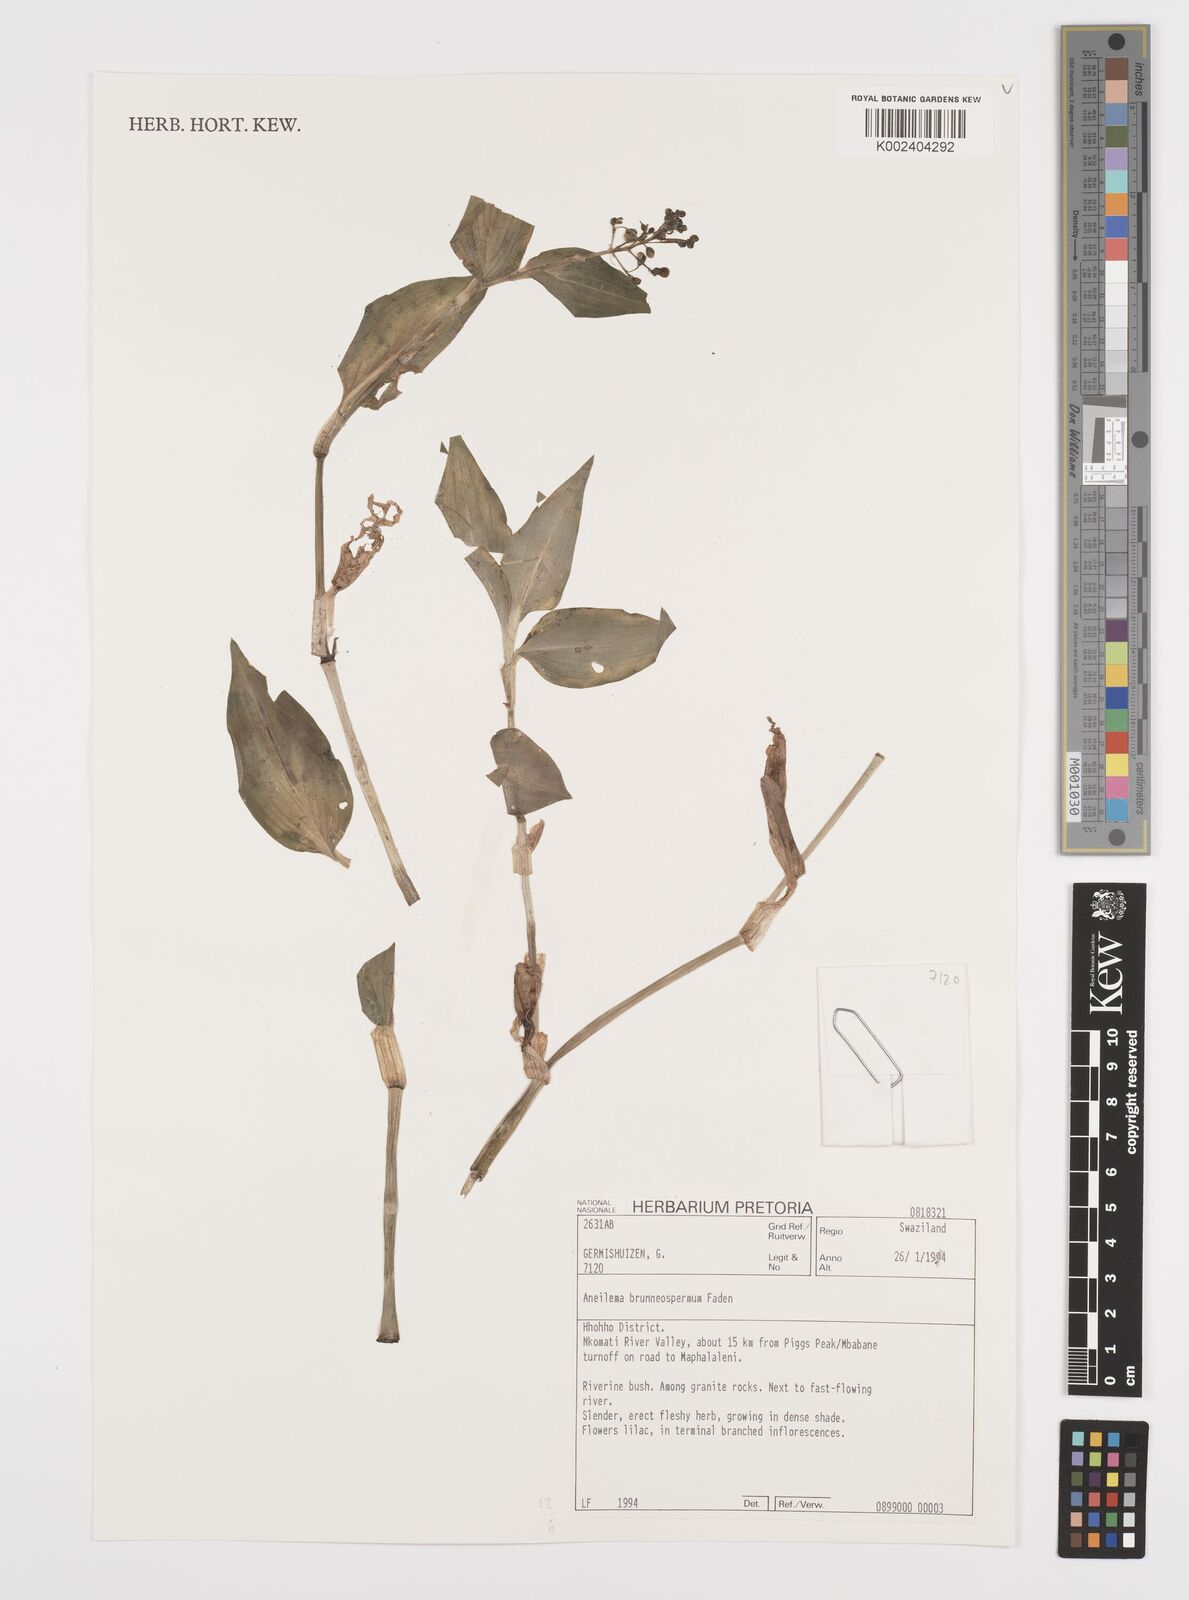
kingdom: Plantae
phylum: Tracheophyta
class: Liliopsida
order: Commelinales
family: Commelinaceae
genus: Aneilema
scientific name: Aneilema brunneospermum
